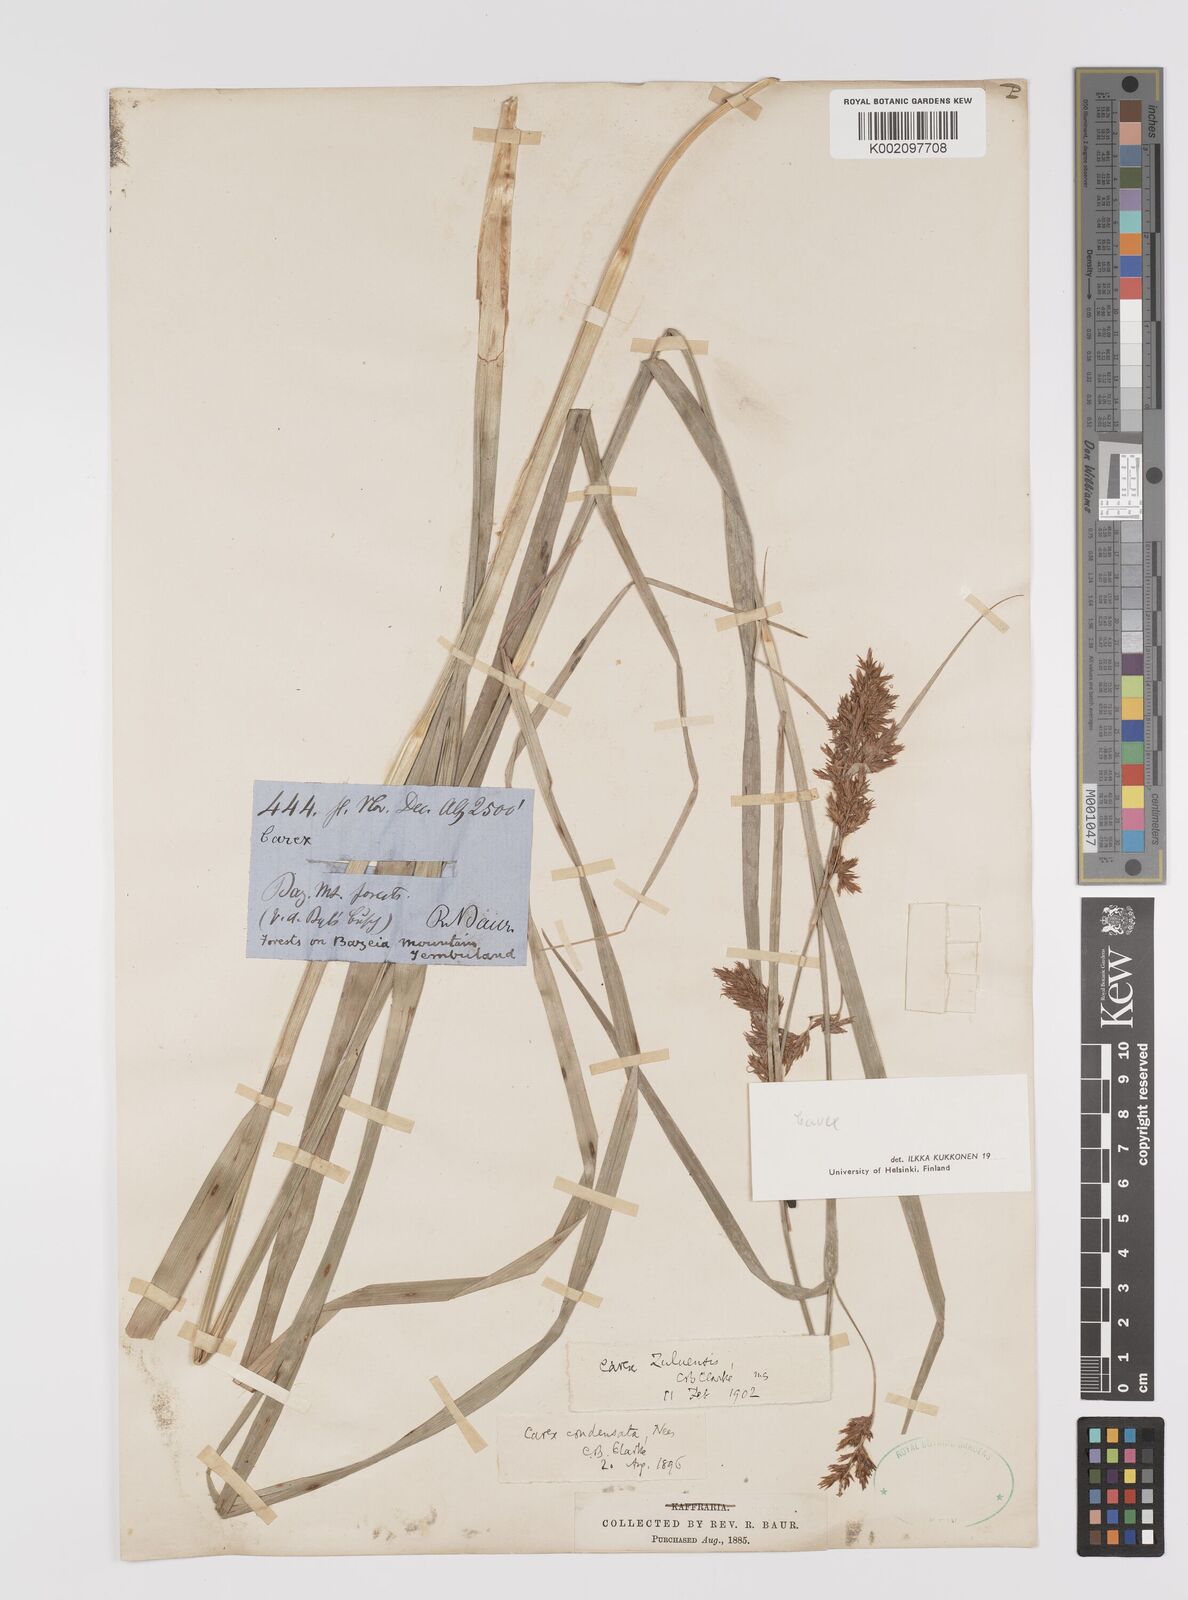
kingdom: Plantae
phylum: Tracheophyta
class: Liliopsida
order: Poales
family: Cyperaceae
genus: Carex
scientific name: Carex
